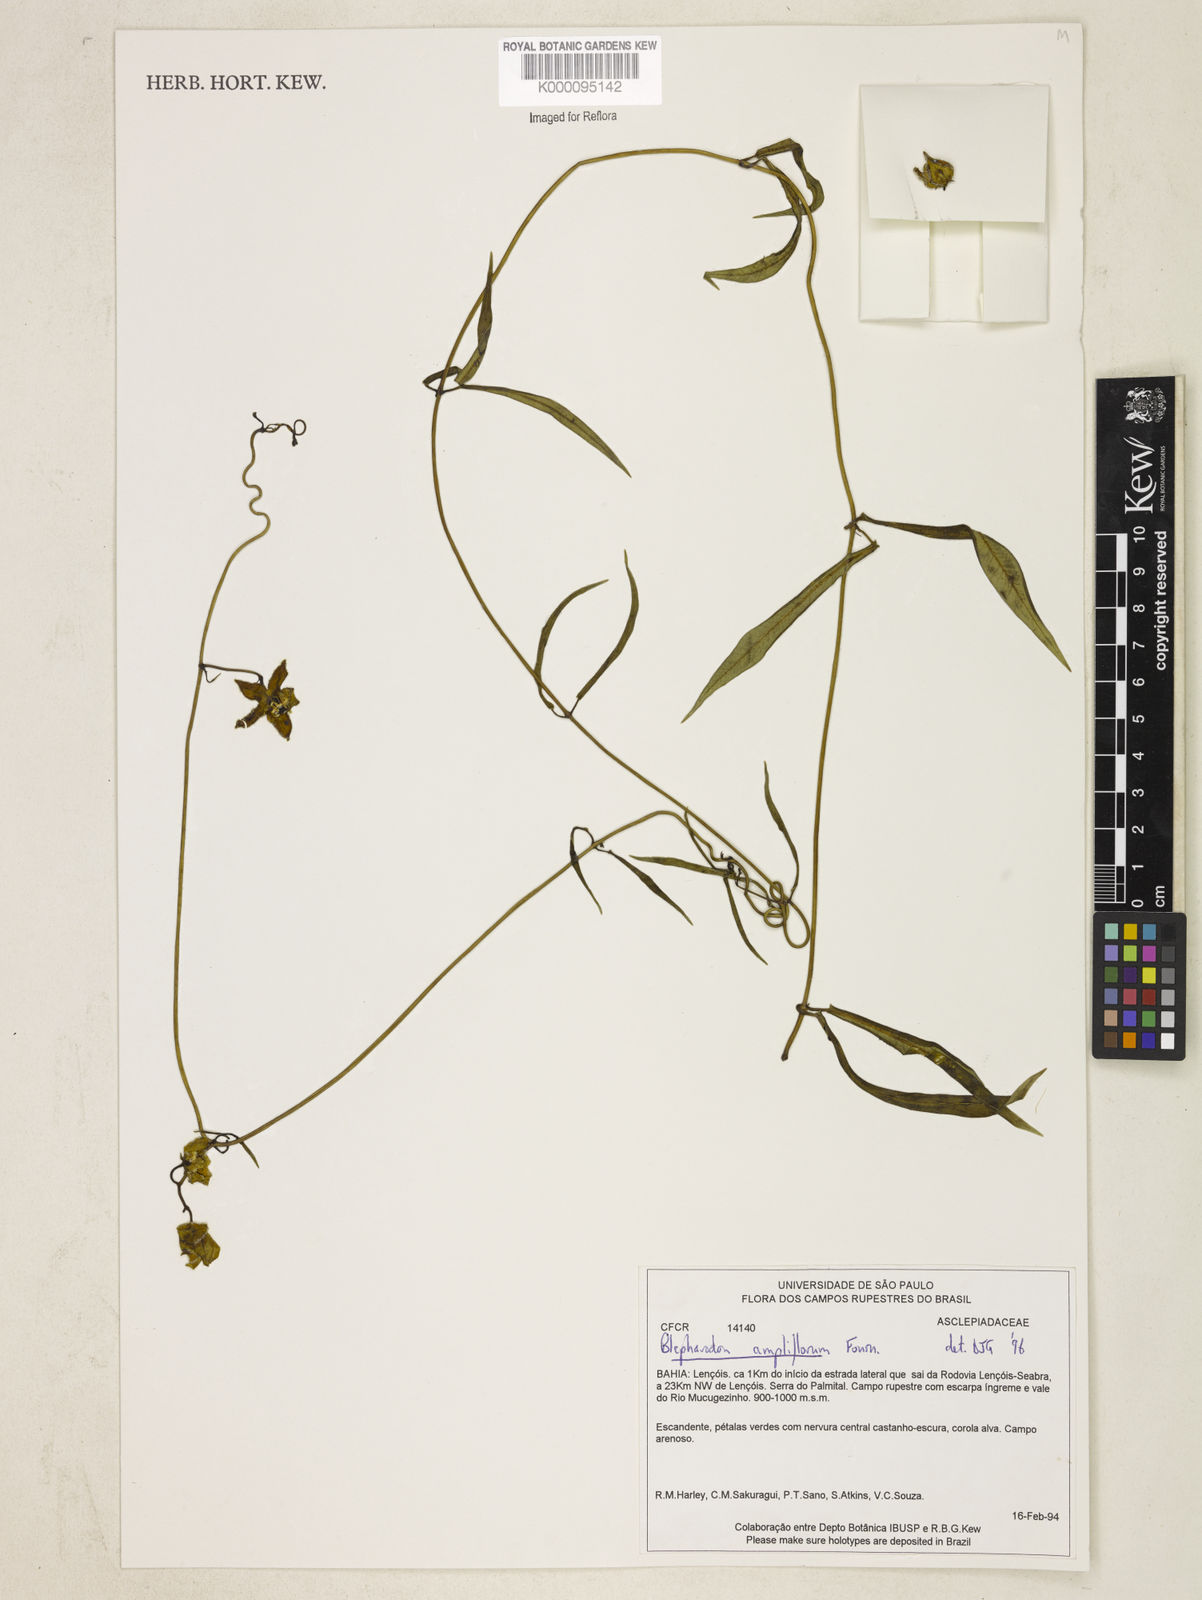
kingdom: Plantae
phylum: Tracheophyta
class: Magnoliopsida
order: Gentianales
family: Apocynaceae
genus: Blepharodon
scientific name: Blepharodon ampliflorum
